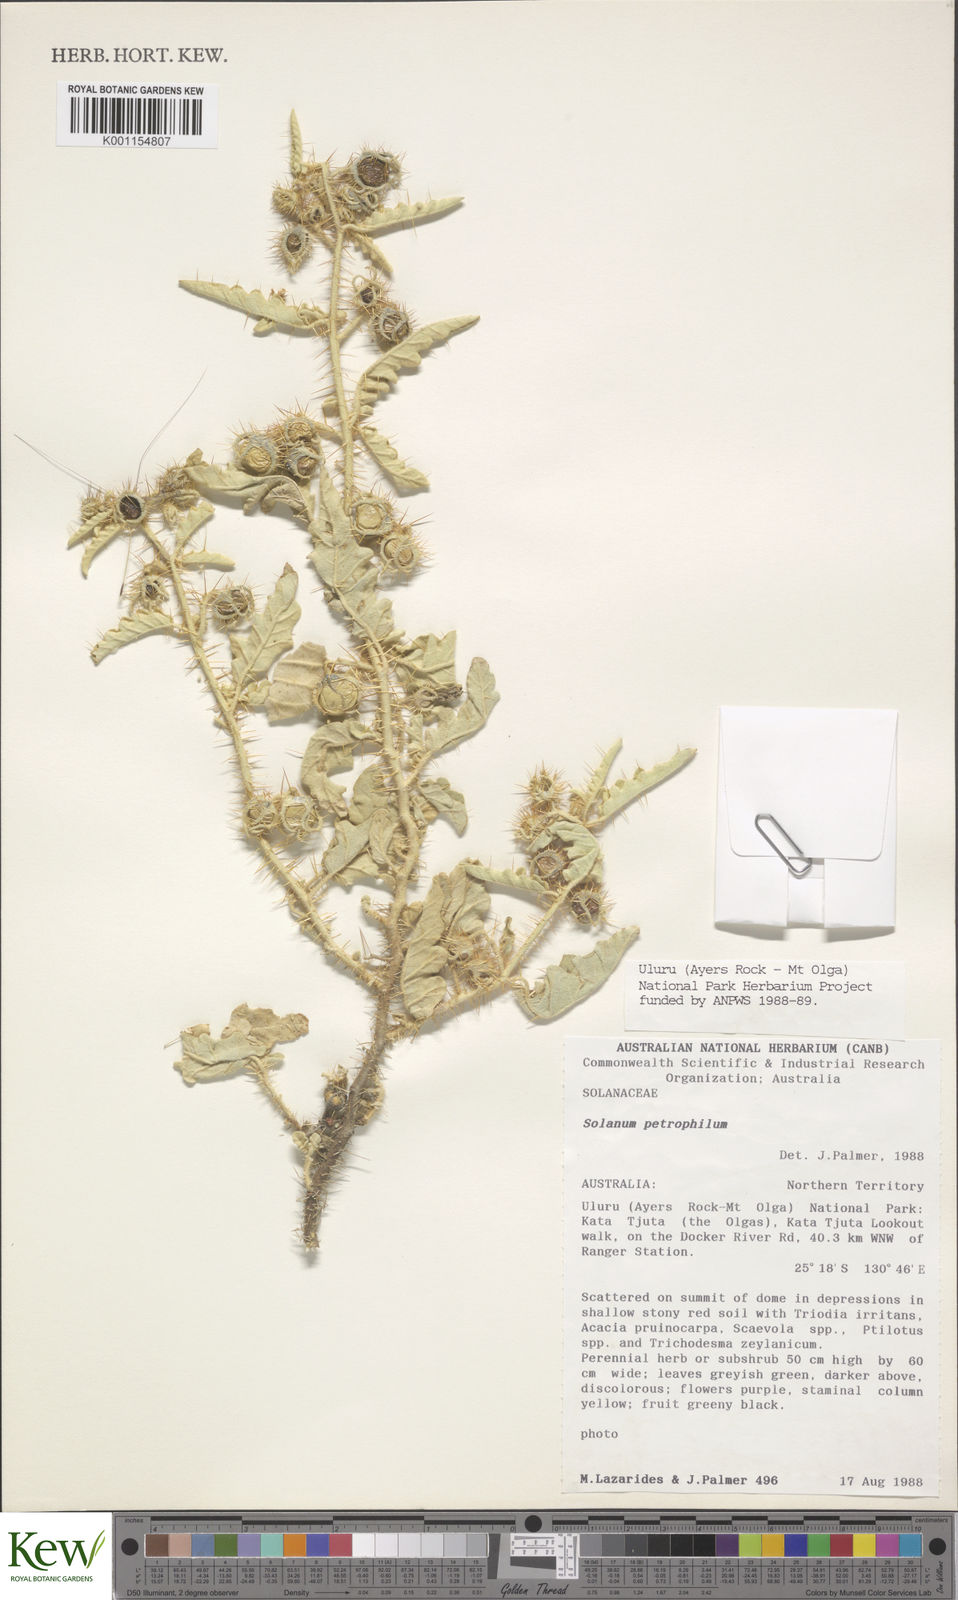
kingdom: Plantae
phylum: Tracheophyta
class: Magnoliopsida
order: Solanales
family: Solanaceae
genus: Solanum
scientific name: Solanum petrophilum
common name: Rock nightshade
